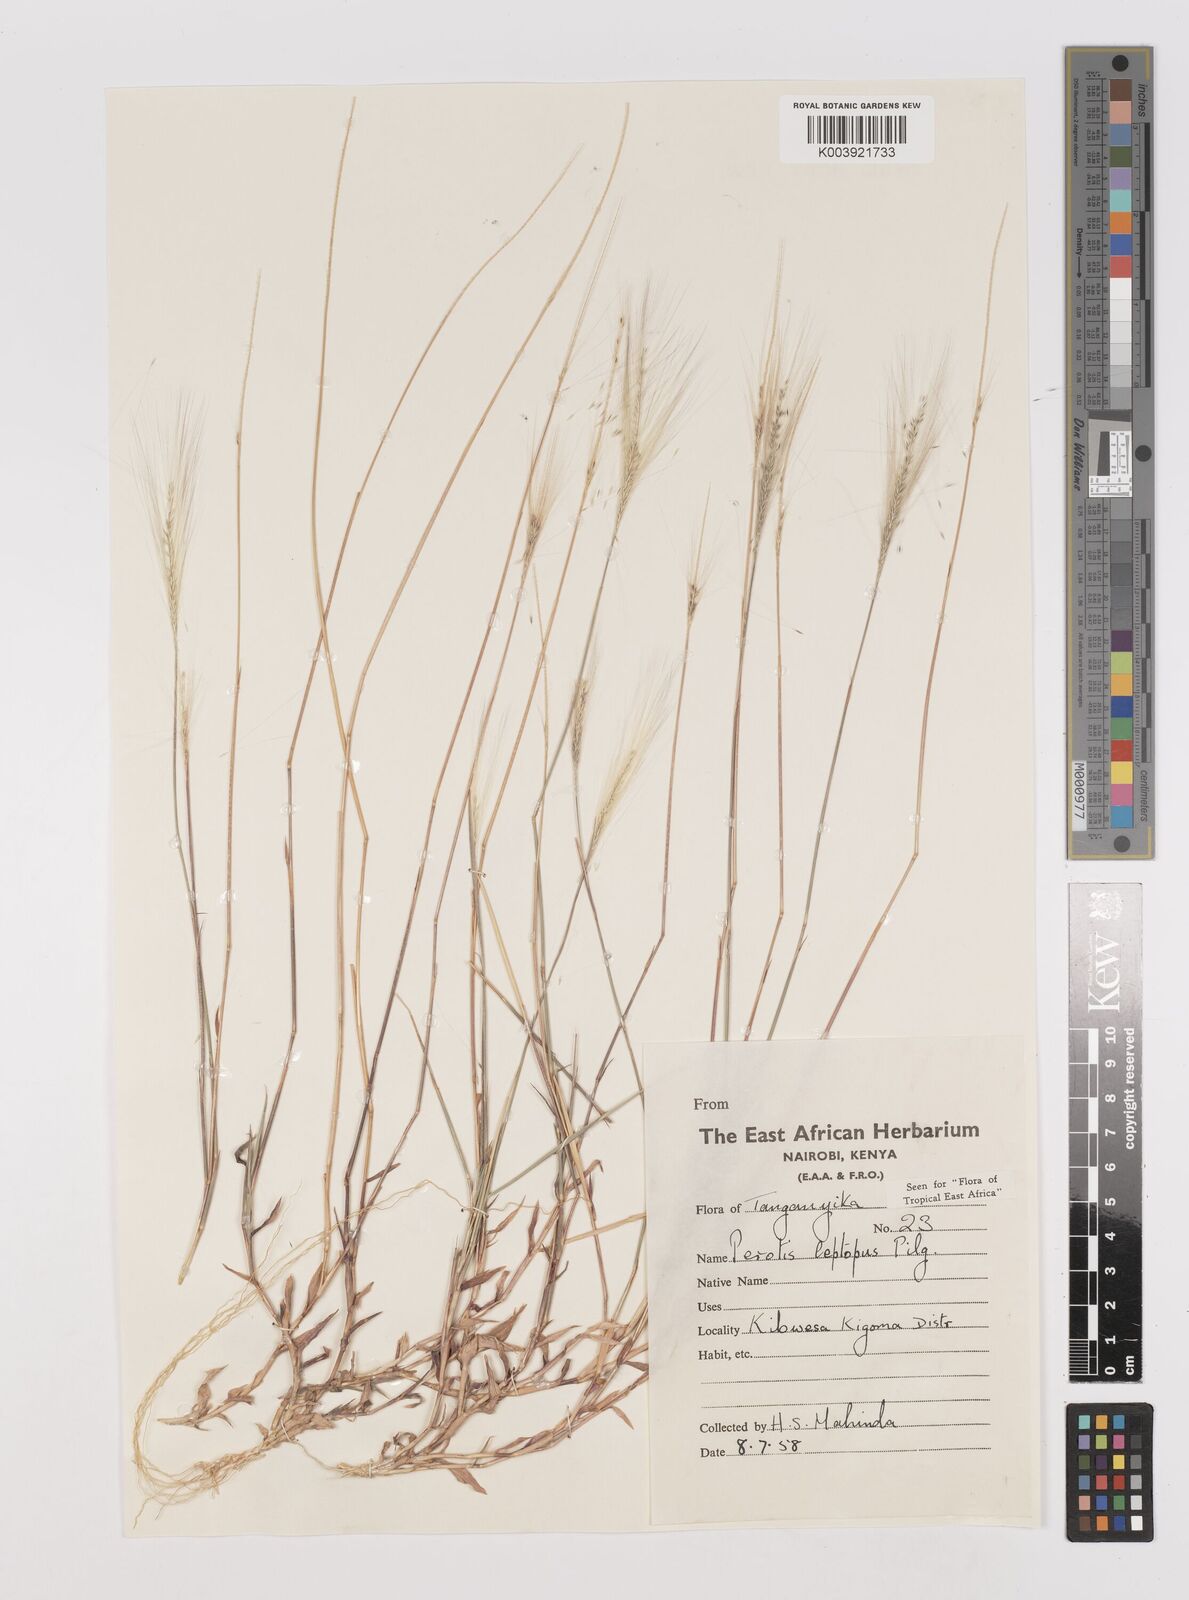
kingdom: Plantae
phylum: Tracheophyta
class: Liliopsida
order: Poales
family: Poaceae
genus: Perotis
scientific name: Perotis leptopus
